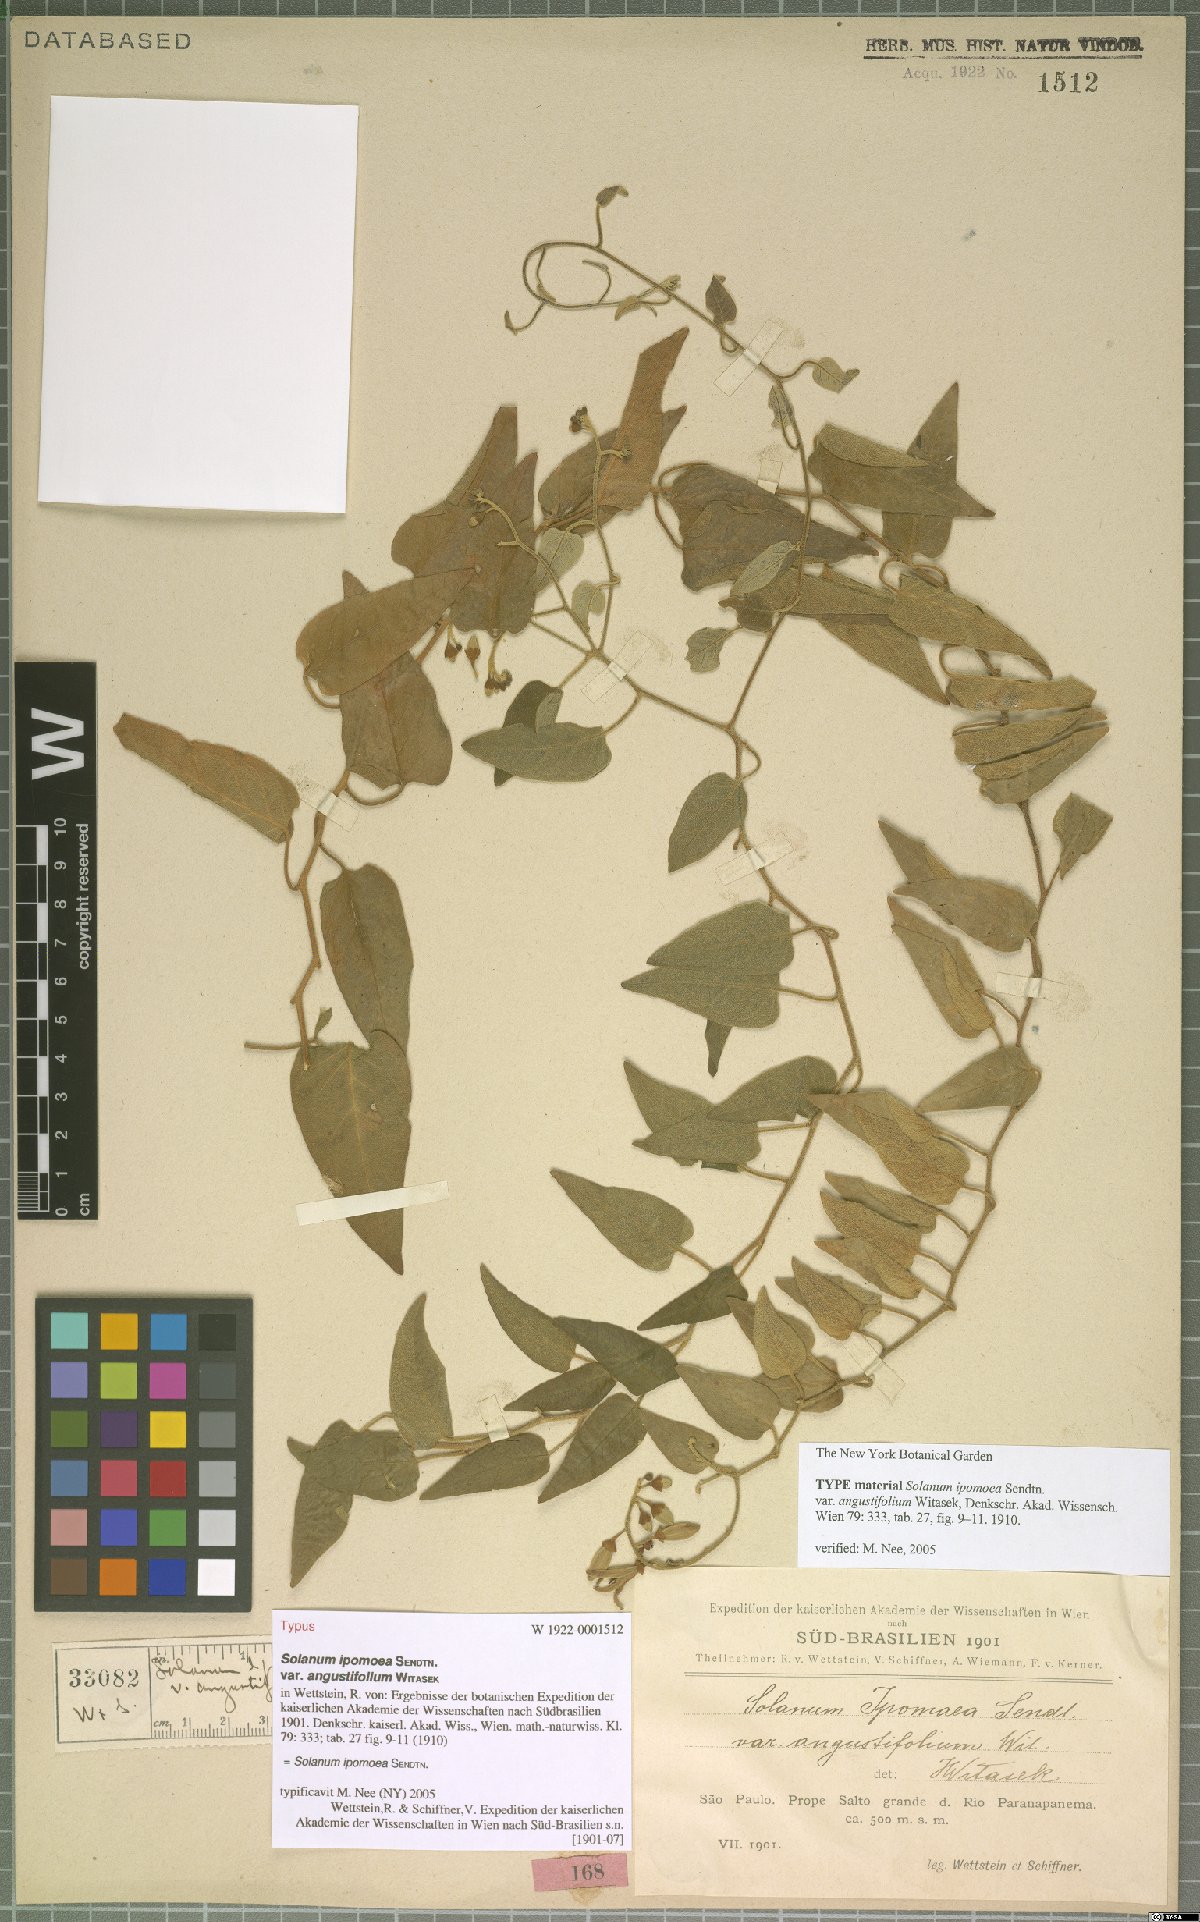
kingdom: Plantae
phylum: Tracheophyta
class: Magnoliopsida
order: Solanales
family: Solanaceae
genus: Solanum
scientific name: Solanum uncinellum
